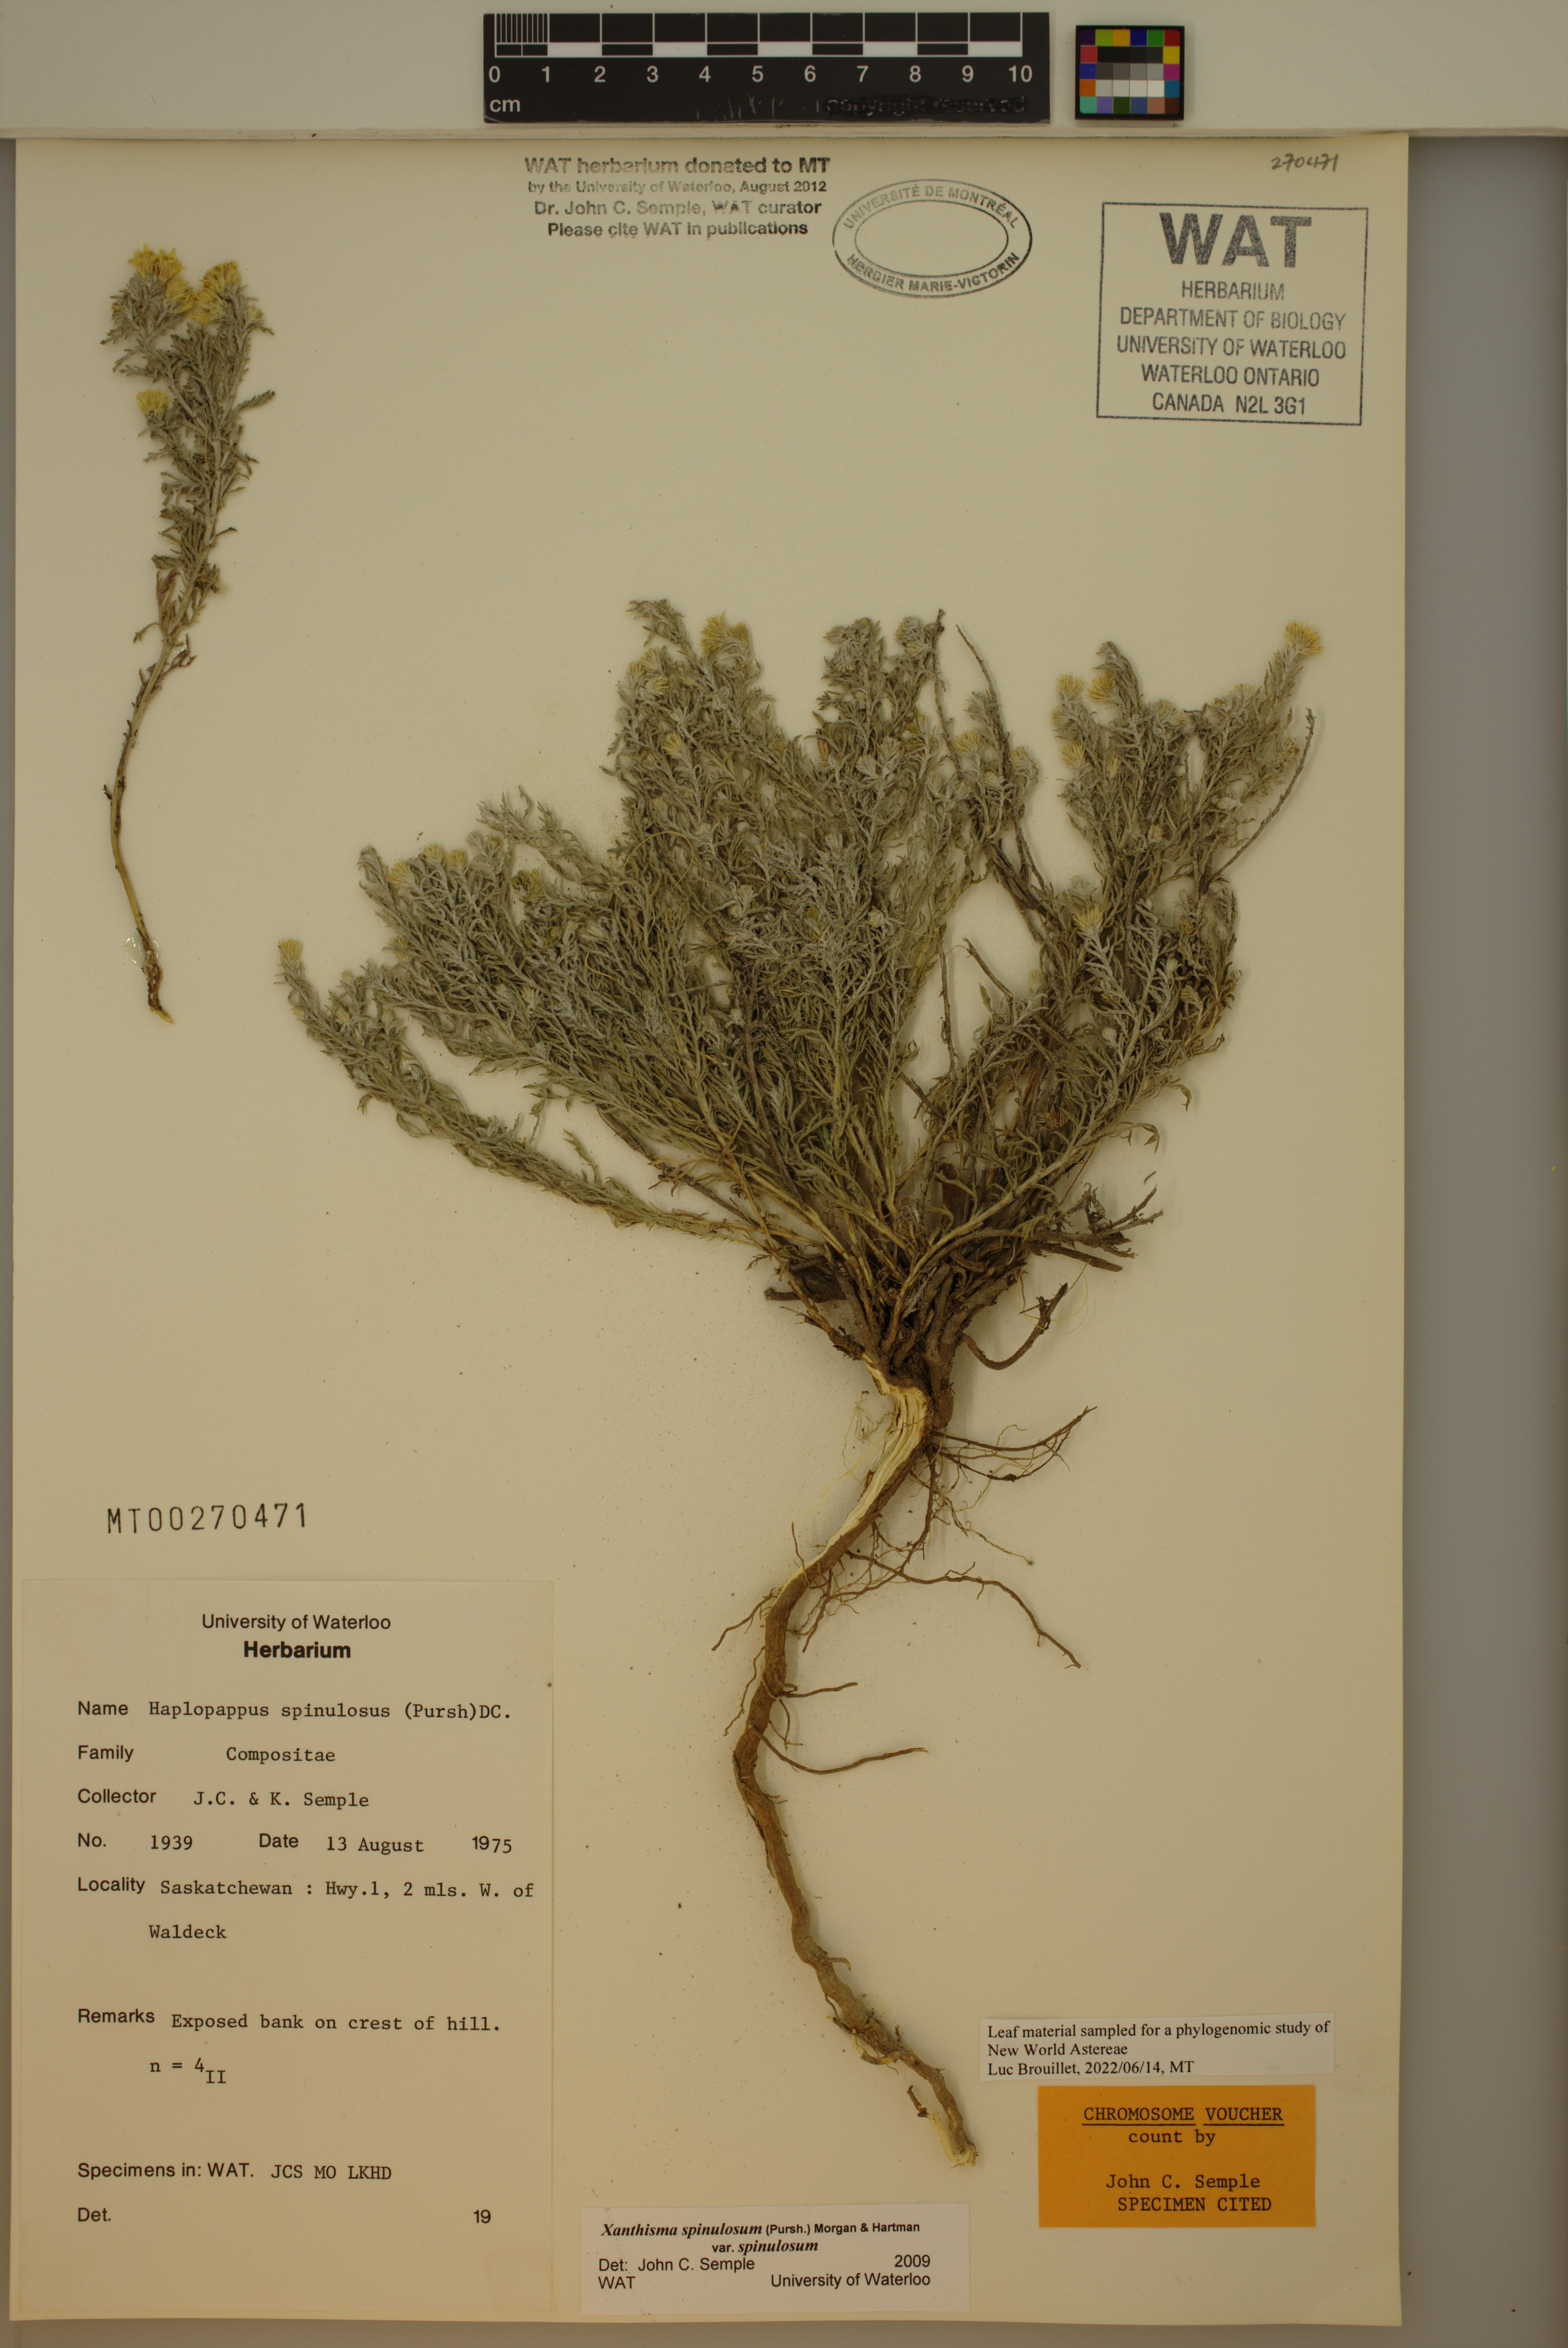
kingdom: Plantae
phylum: Tracheophyta
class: Magnoliopsida
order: Asterales
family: Asteraceae
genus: Xanthisma
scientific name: Xanthisma spinulosum
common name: Spiny goldenweed
